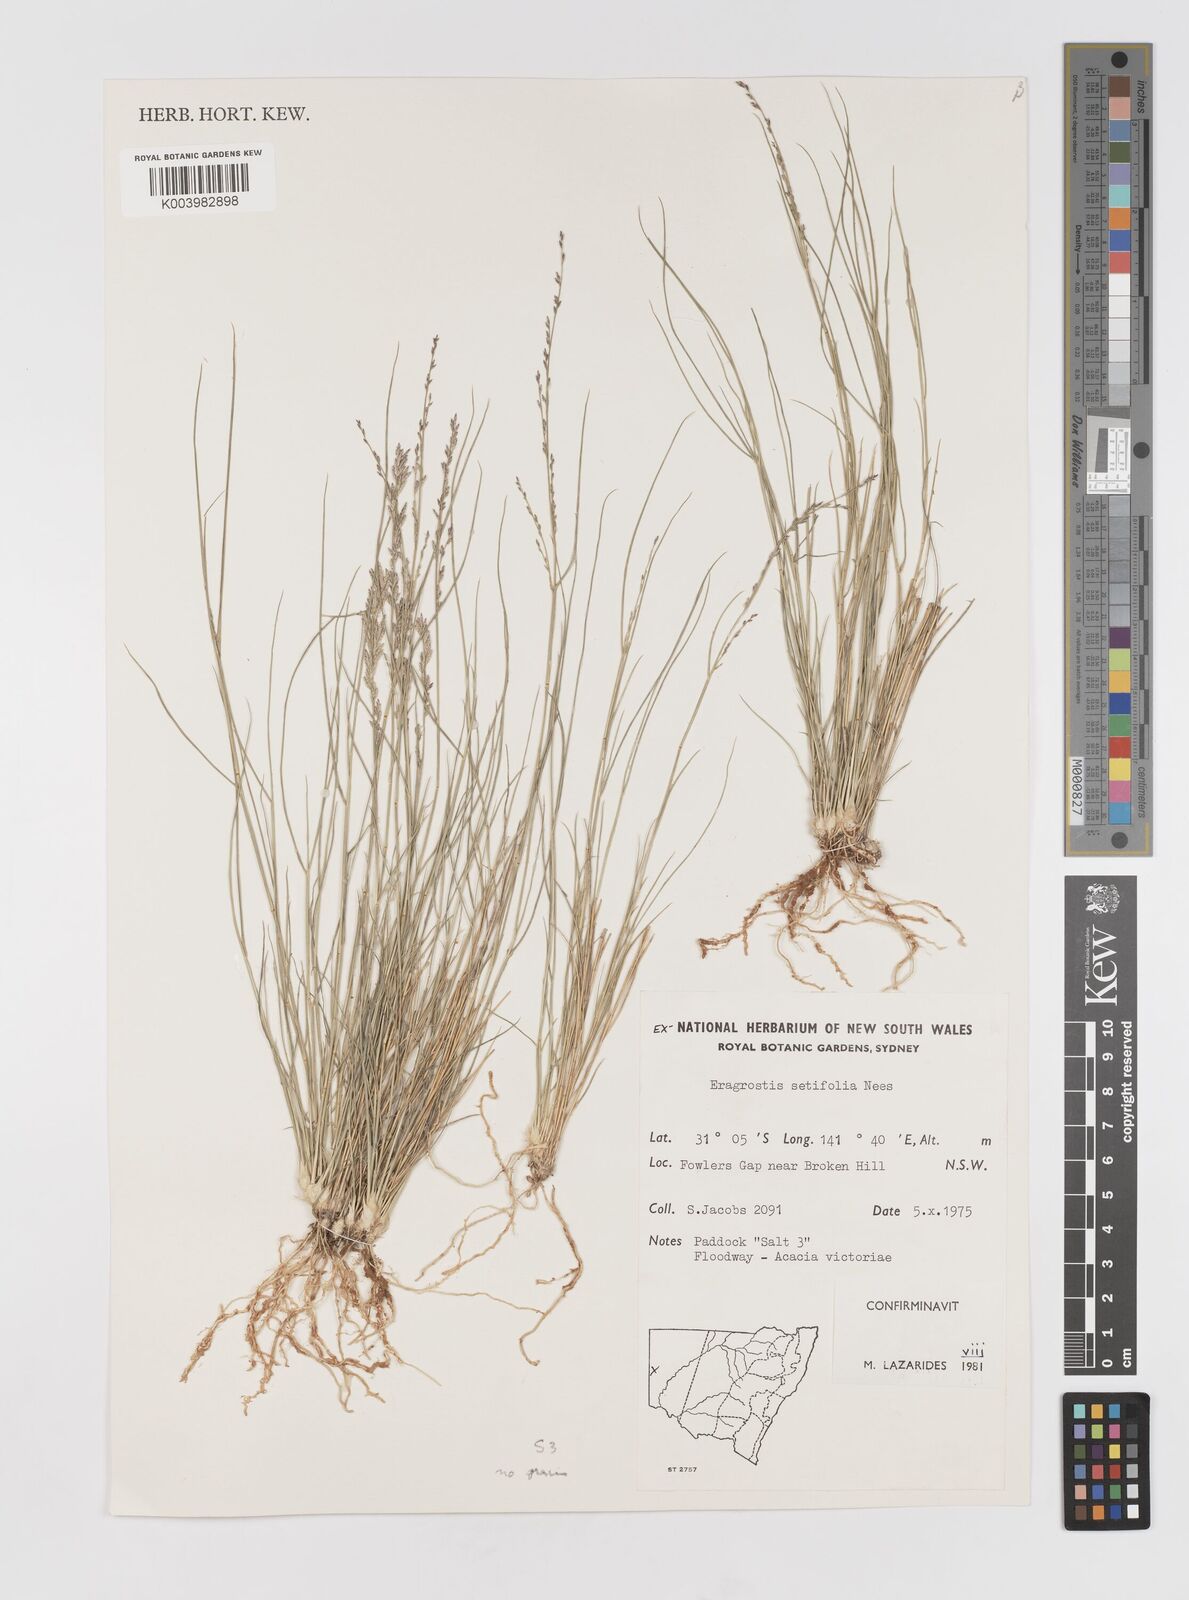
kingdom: Plantae
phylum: Tracheophyta
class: Liliopsida
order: Poales
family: Poaceae
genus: Eragrostis
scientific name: Eragrostis setifolia
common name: Bristleleaf lovegrass
